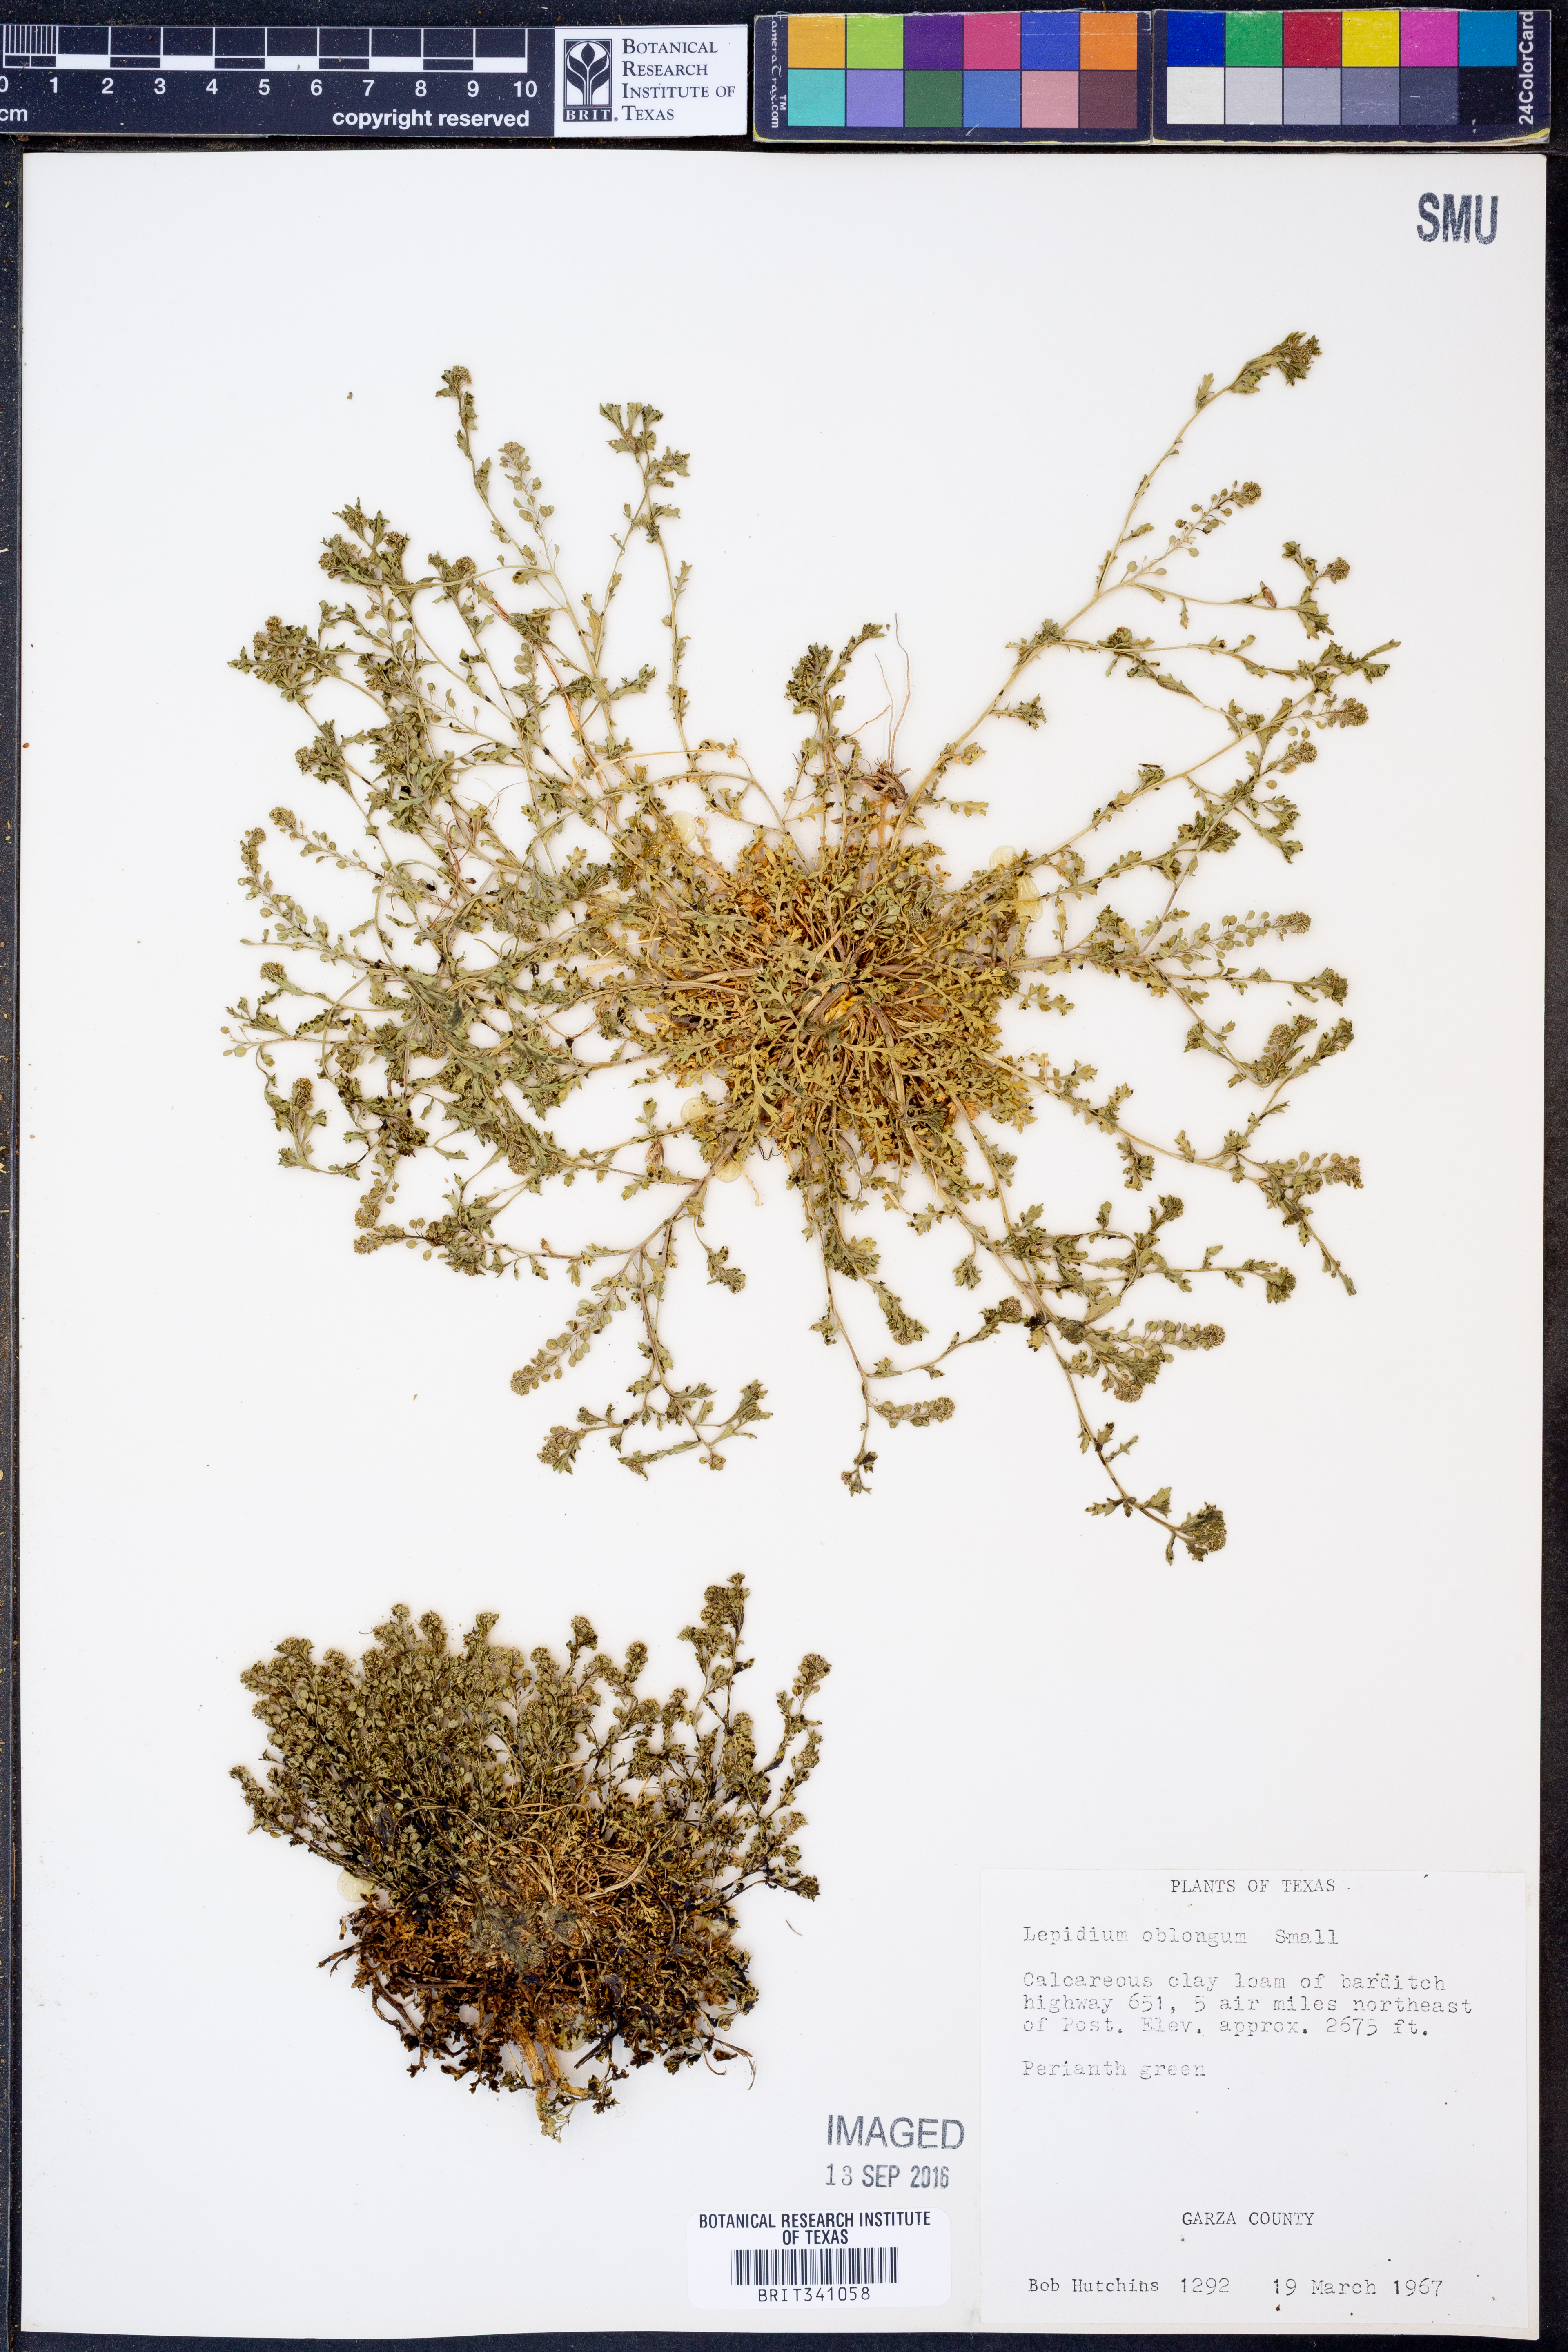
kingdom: Plantae
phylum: Tracheophyta
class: Magnoliopsida
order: Brassicales
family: Brassicaceae
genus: Lepidium
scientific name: Lepidium oblongum
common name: Veiny pepperweed
